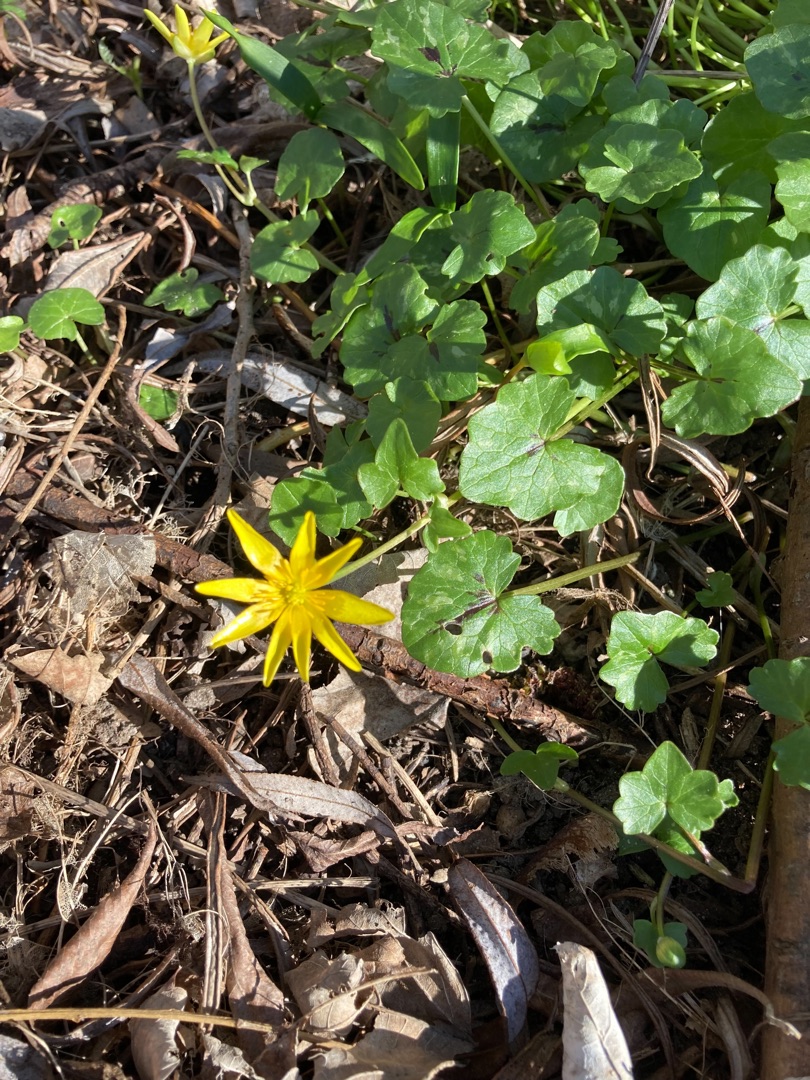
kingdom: Plantae
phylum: Tracheophyta
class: Magnoliopsida
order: Ranunculales
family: Ranunculaceae
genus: Ficaria
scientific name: Ficaria verna
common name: Vorterod
